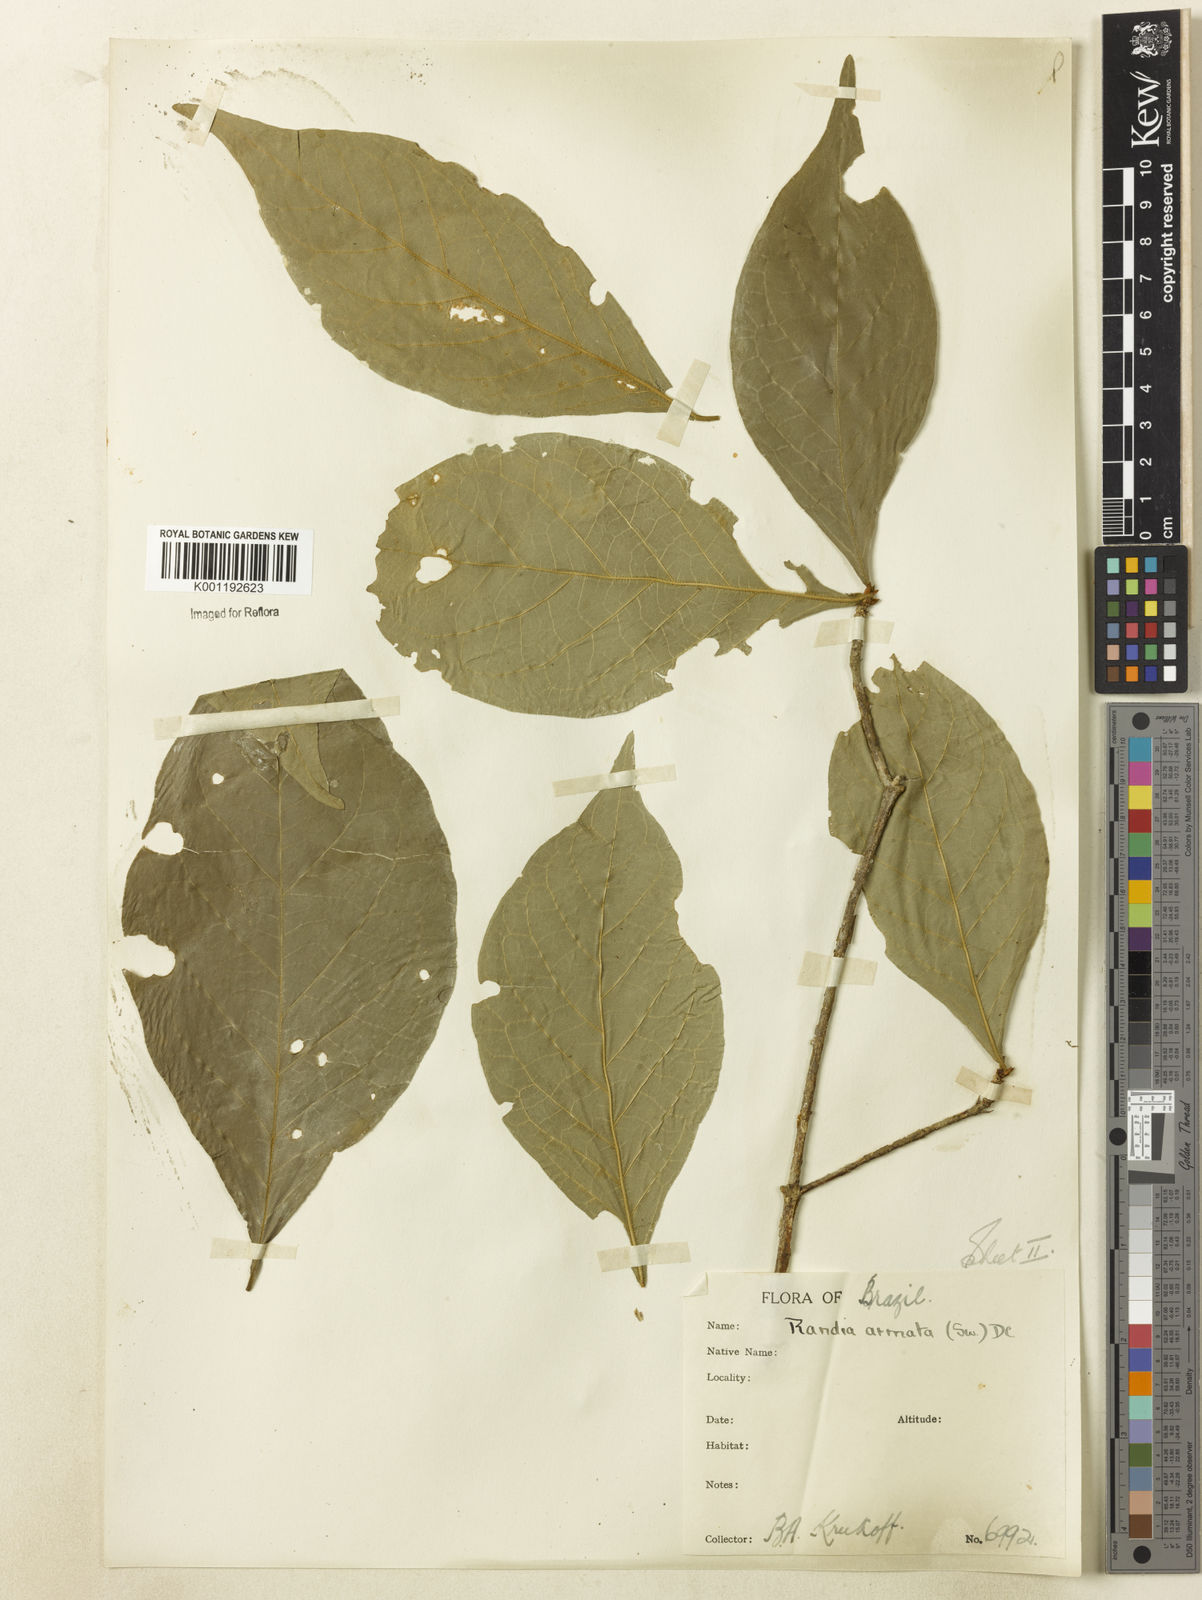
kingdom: Plantae
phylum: Tracheophyta
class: Magnoliopsida
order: Gentianales
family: Rubiaceae
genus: Randia
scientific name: Randia armata
